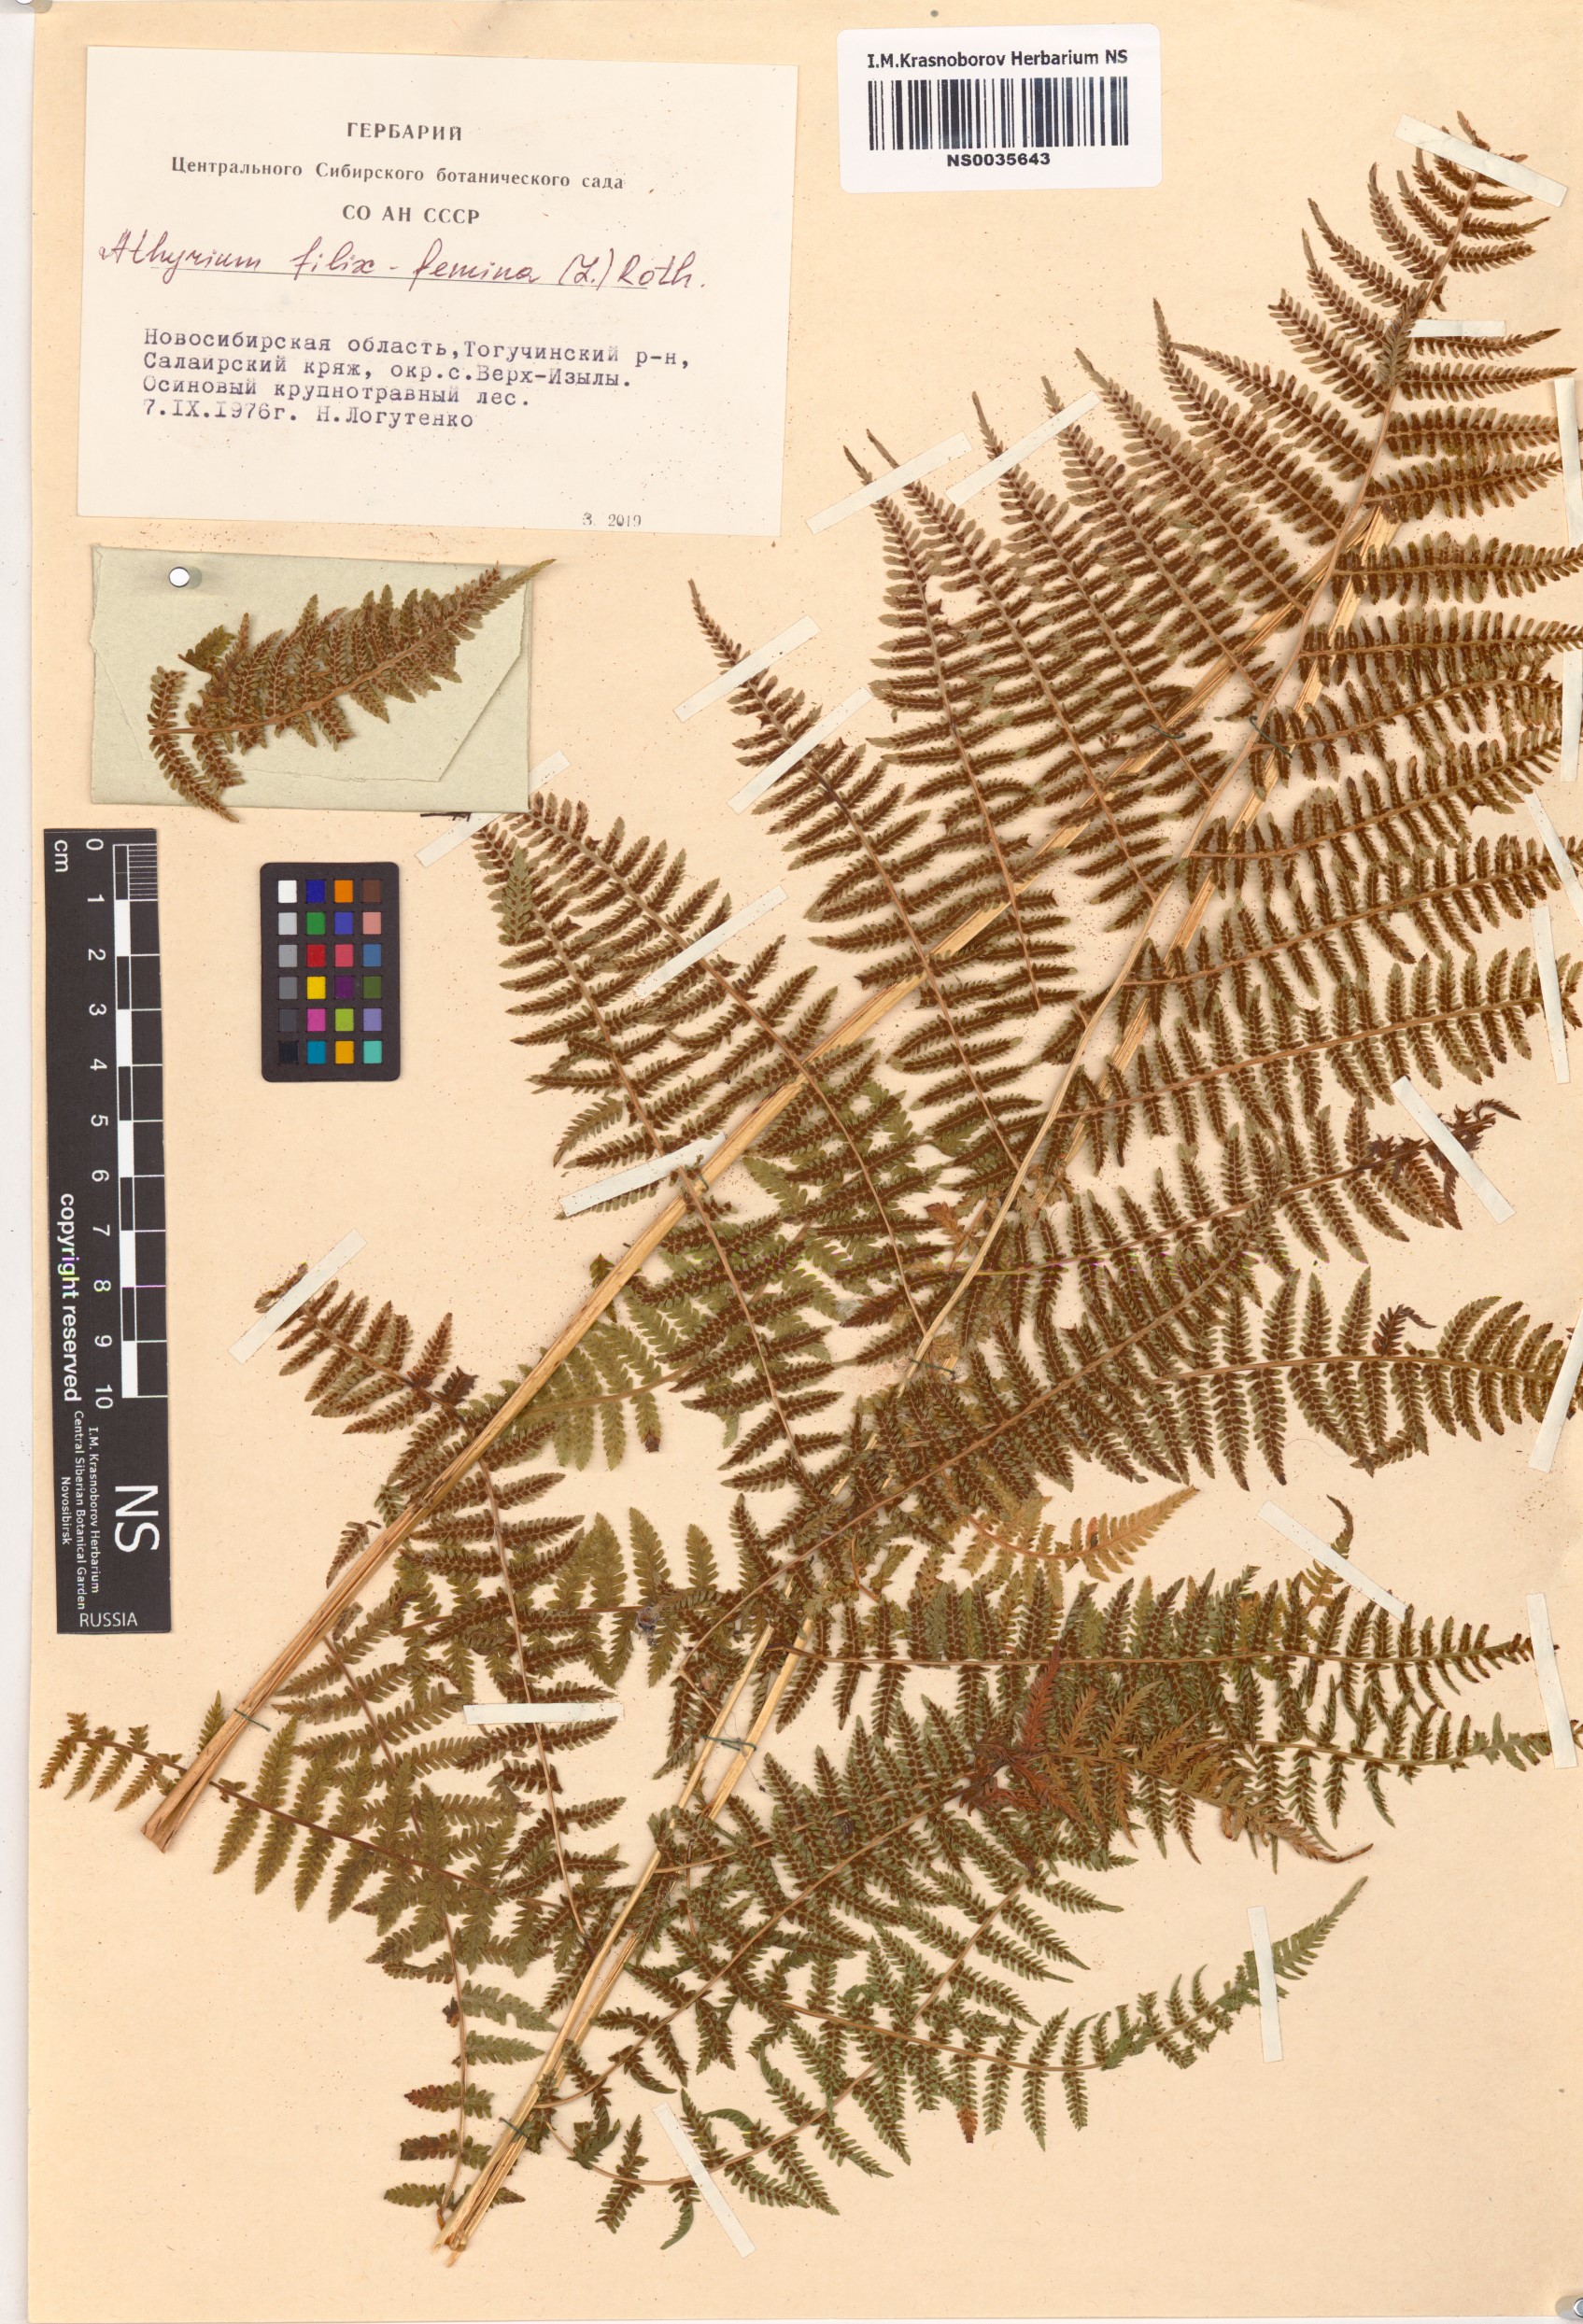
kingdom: Plantae
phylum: Tracheophyta
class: Polypodiopsida
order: Polypodiales
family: Athyriaceae
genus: Athyrium
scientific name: Athyrium filix-femina
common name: Lady fern
